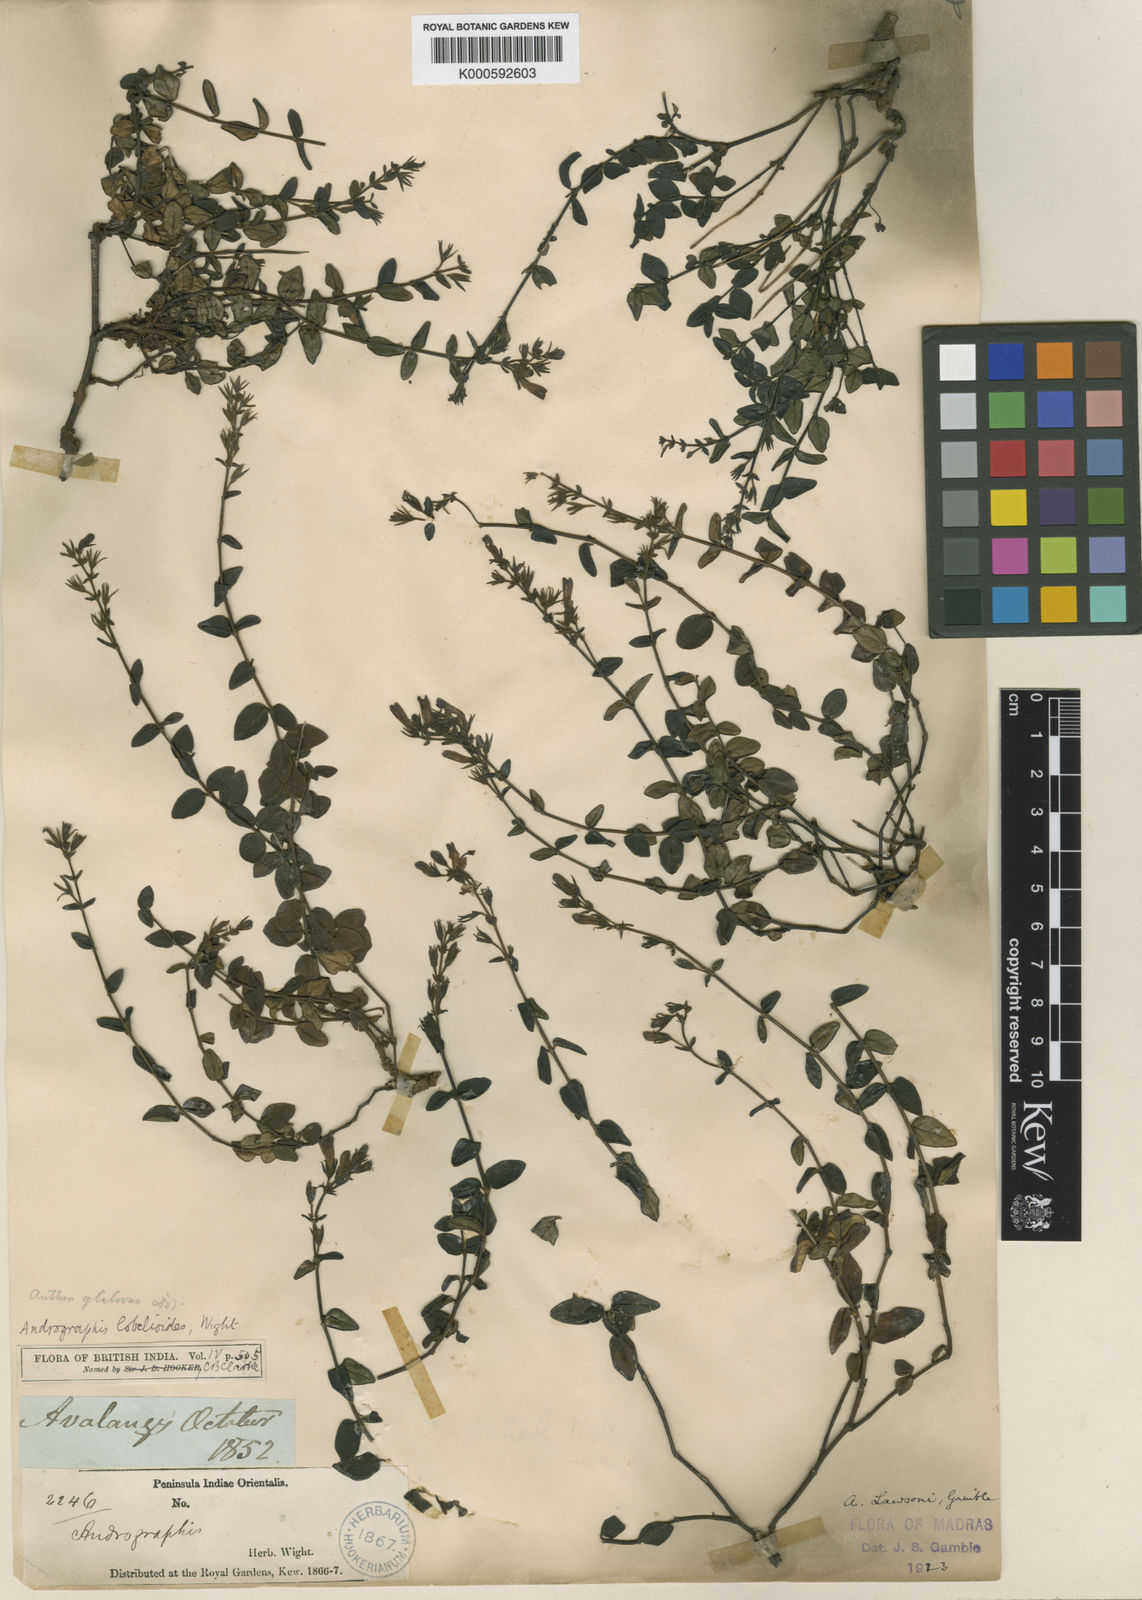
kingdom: Plantae
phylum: Tracheophyta
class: Magnoliopsida
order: Lamiales
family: Acanthaceae
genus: Andrographis
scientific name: Andrographis lawsonii
